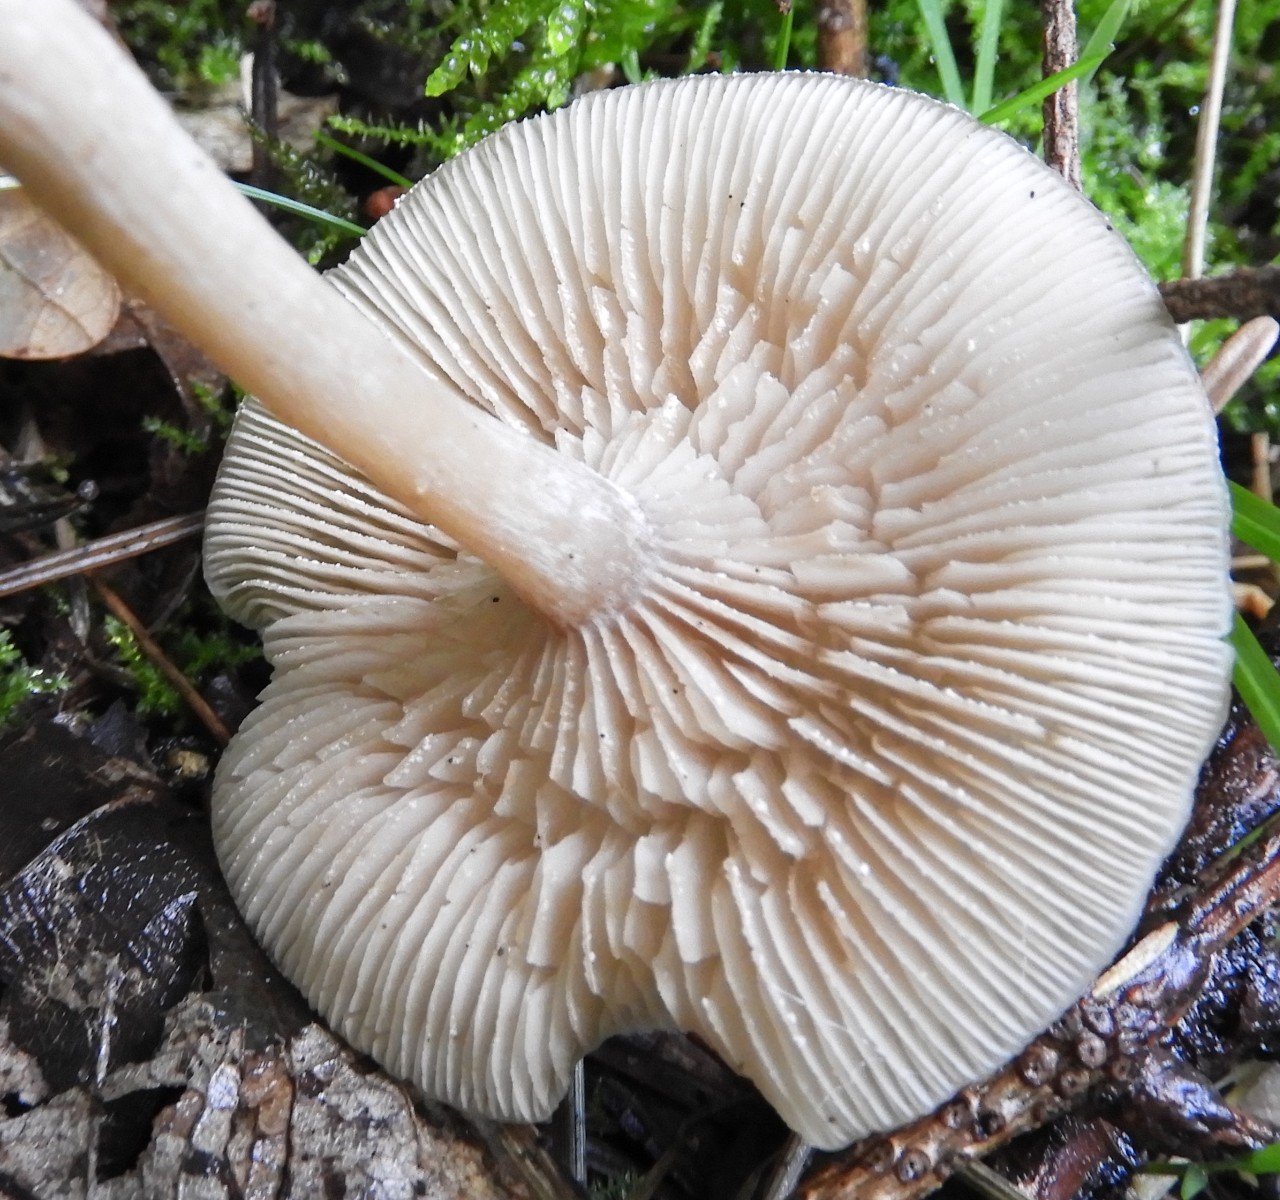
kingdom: Fungi
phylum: Basidiomycota
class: Agaricomycetes
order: Agaricales
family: Tricholomataceae
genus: Clitocybe
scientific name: Clitocybe fragrans
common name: vellugtende tragthat
